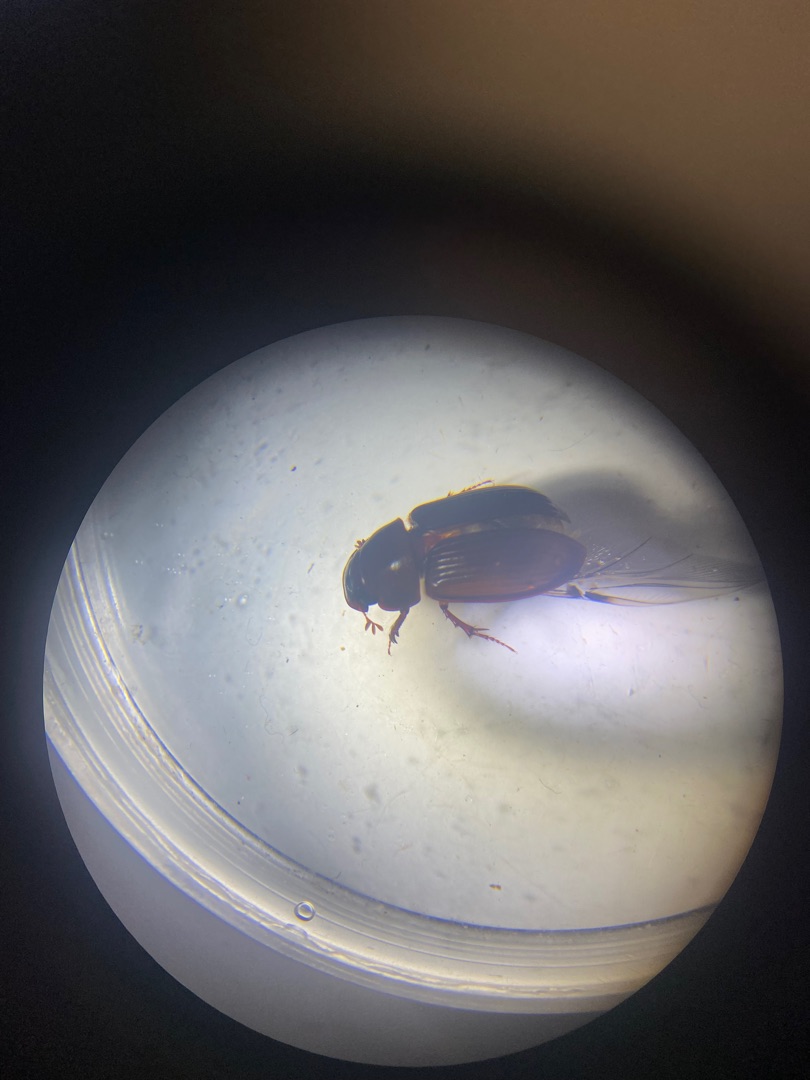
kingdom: Animalia
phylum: Arthropoda
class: Insecta
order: Coleoptera
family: Scarabaeidae
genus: Acrossus
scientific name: Acrossus rufipes
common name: Rødbenet møgbille
